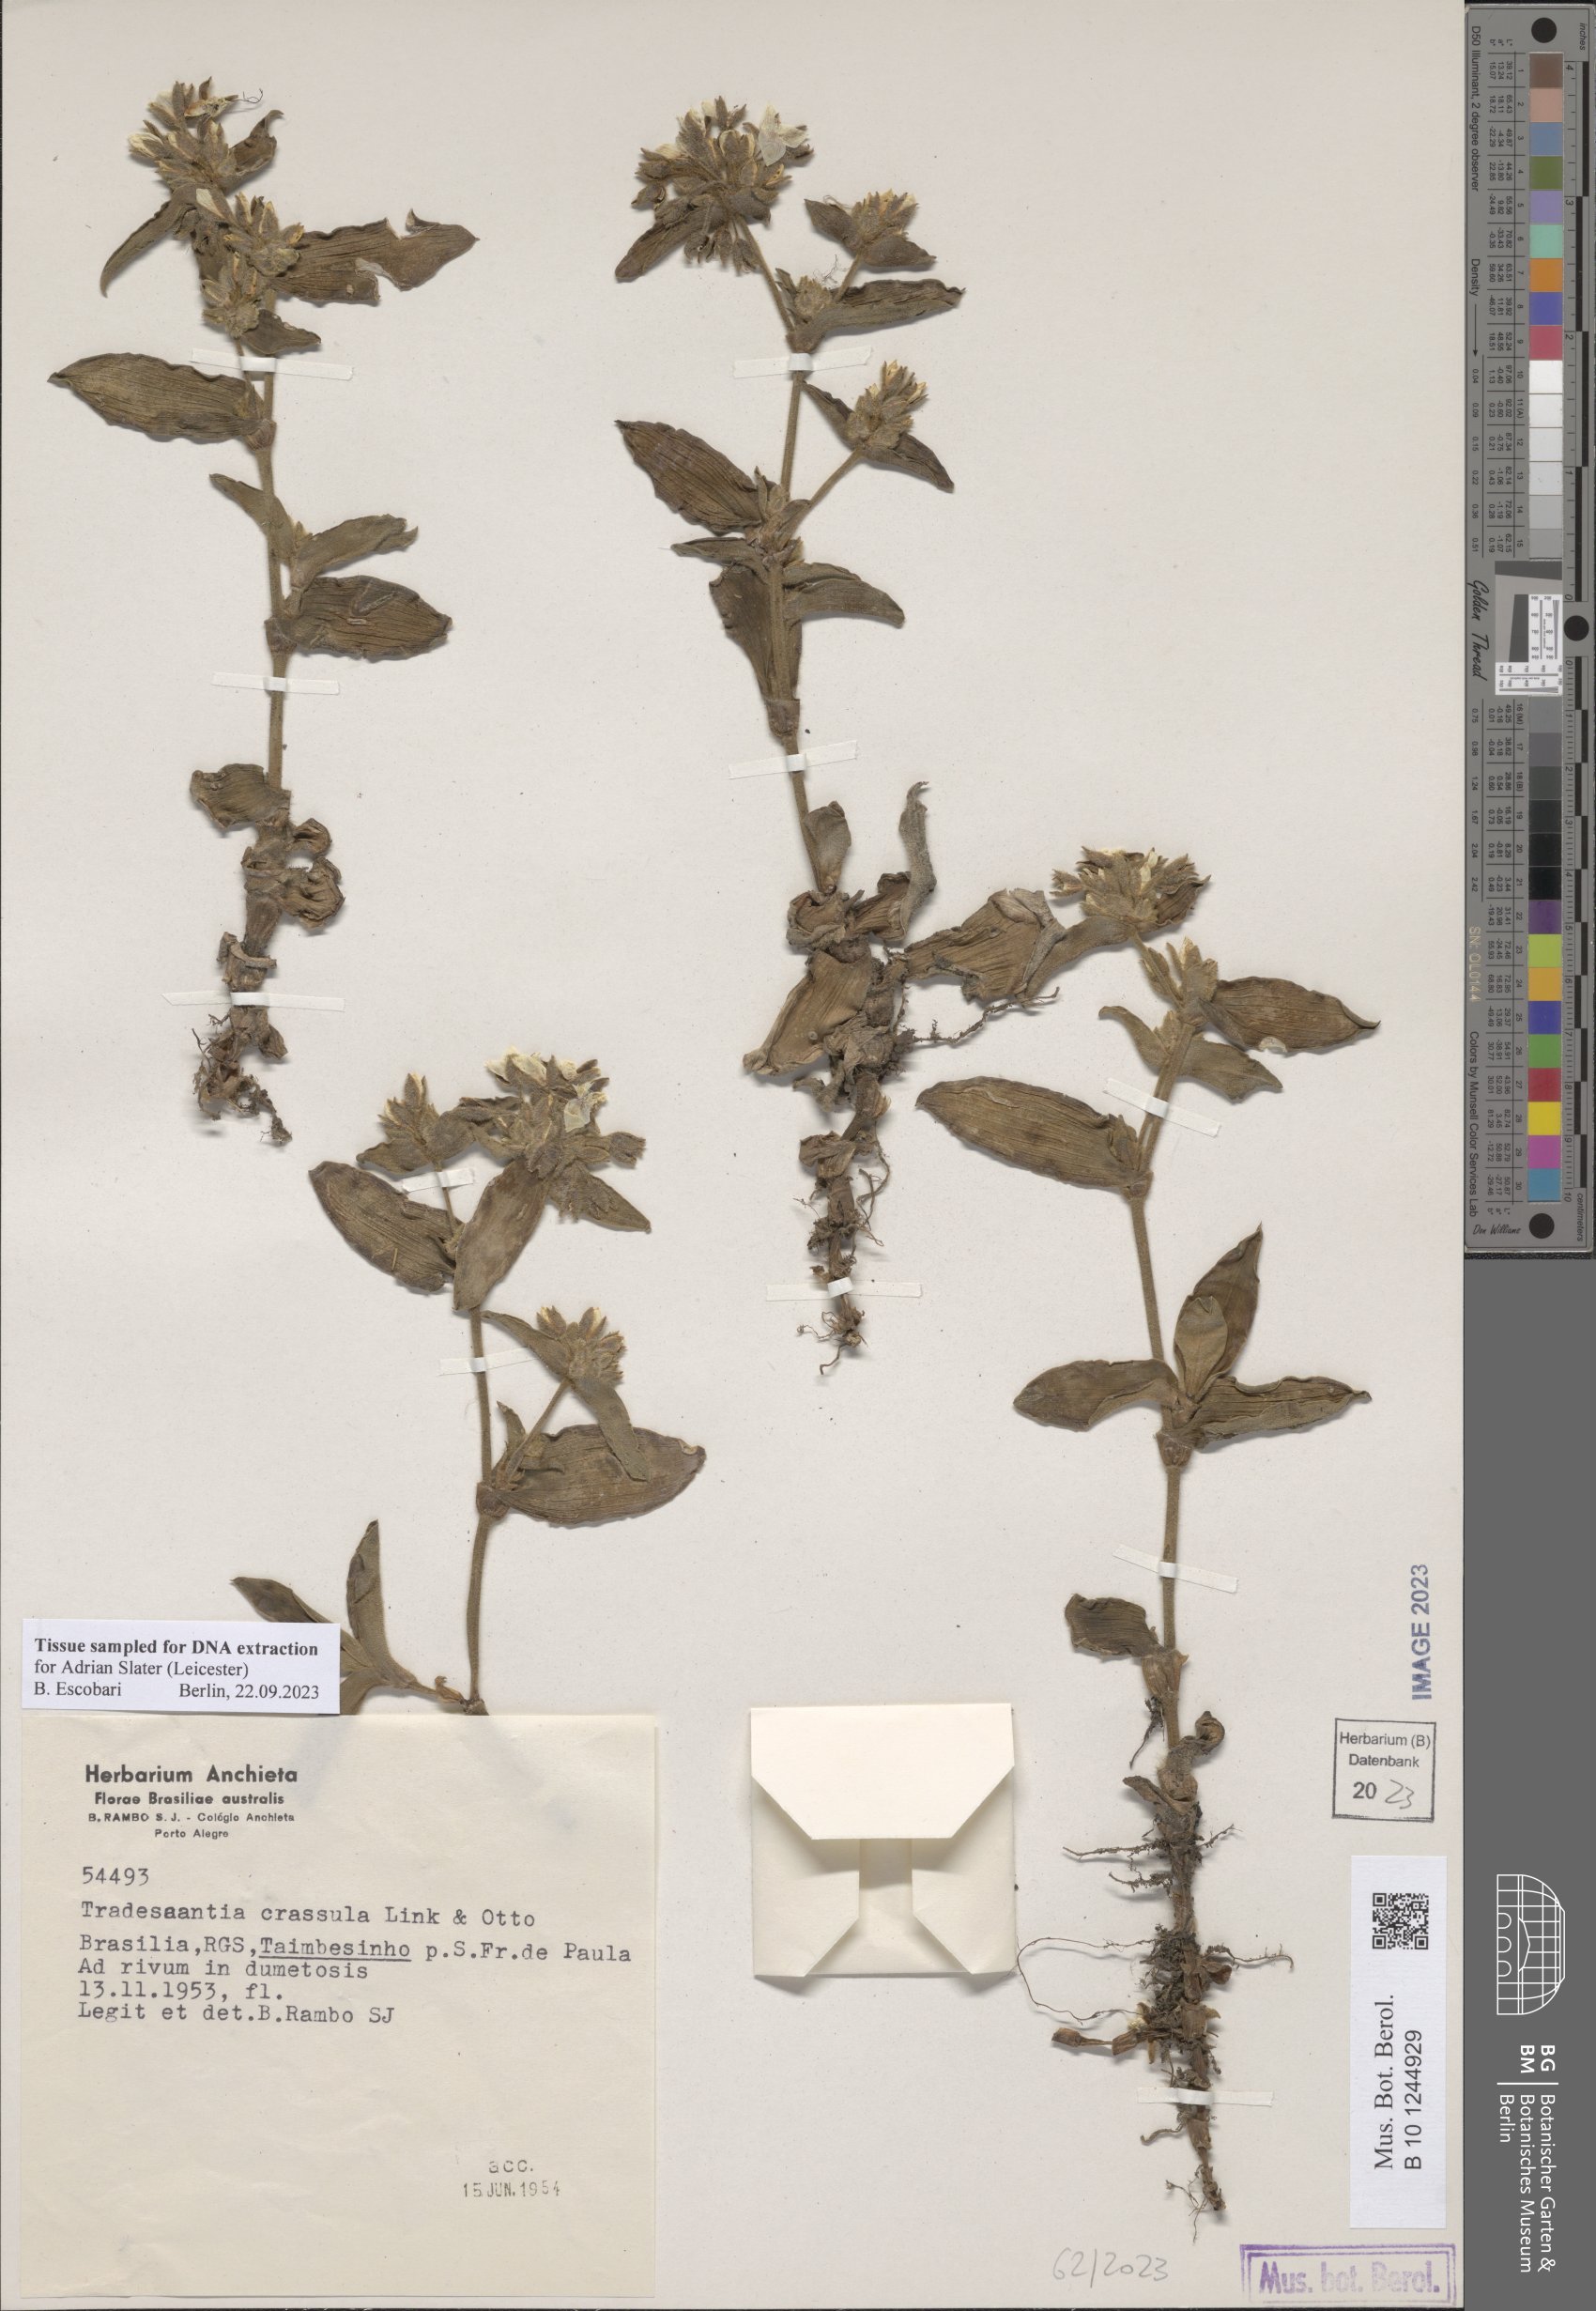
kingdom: Plantae
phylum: Tracheophyta
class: Liliopsida
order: Commelinales
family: Commelinaceae
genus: Tradescantia
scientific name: Tradescantia crassula
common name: Succulent spiderwort
